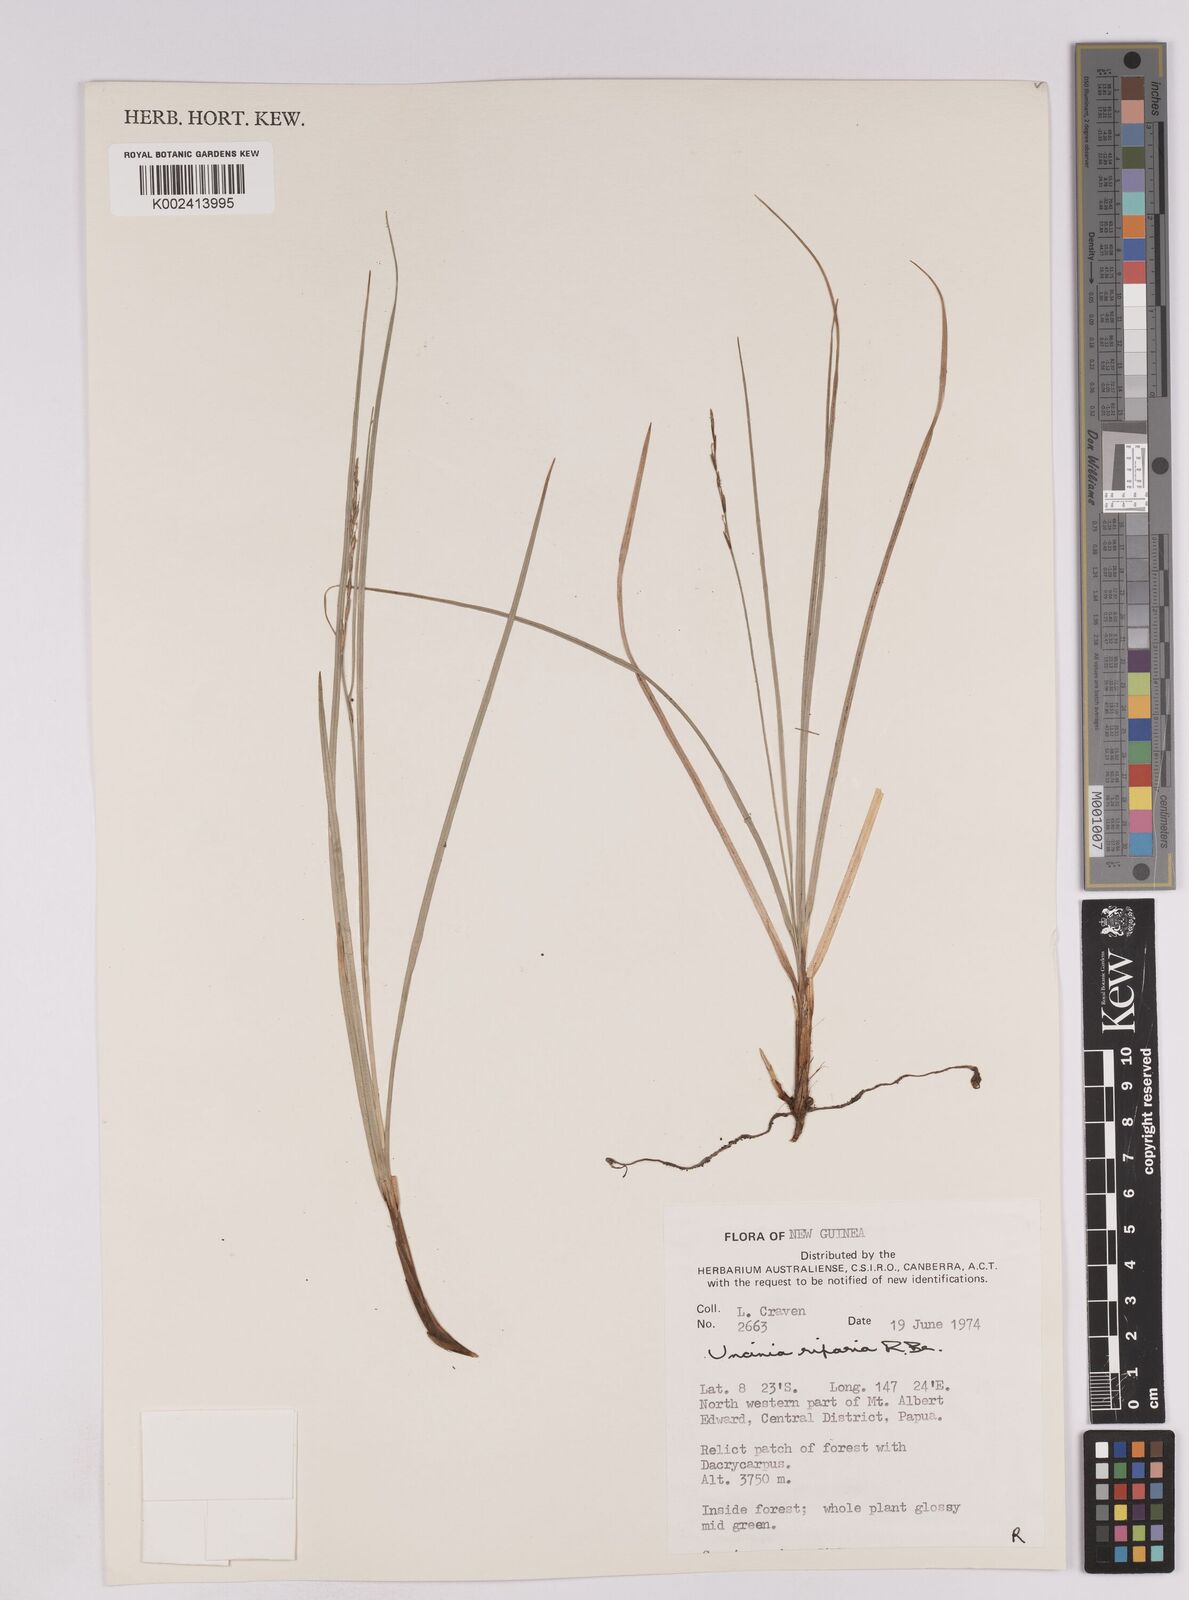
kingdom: Plantae
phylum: Tracheophyta
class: Liliopsida
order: Poales
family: Cyperaceae
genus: Carex
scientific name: Carex sclerophylla
